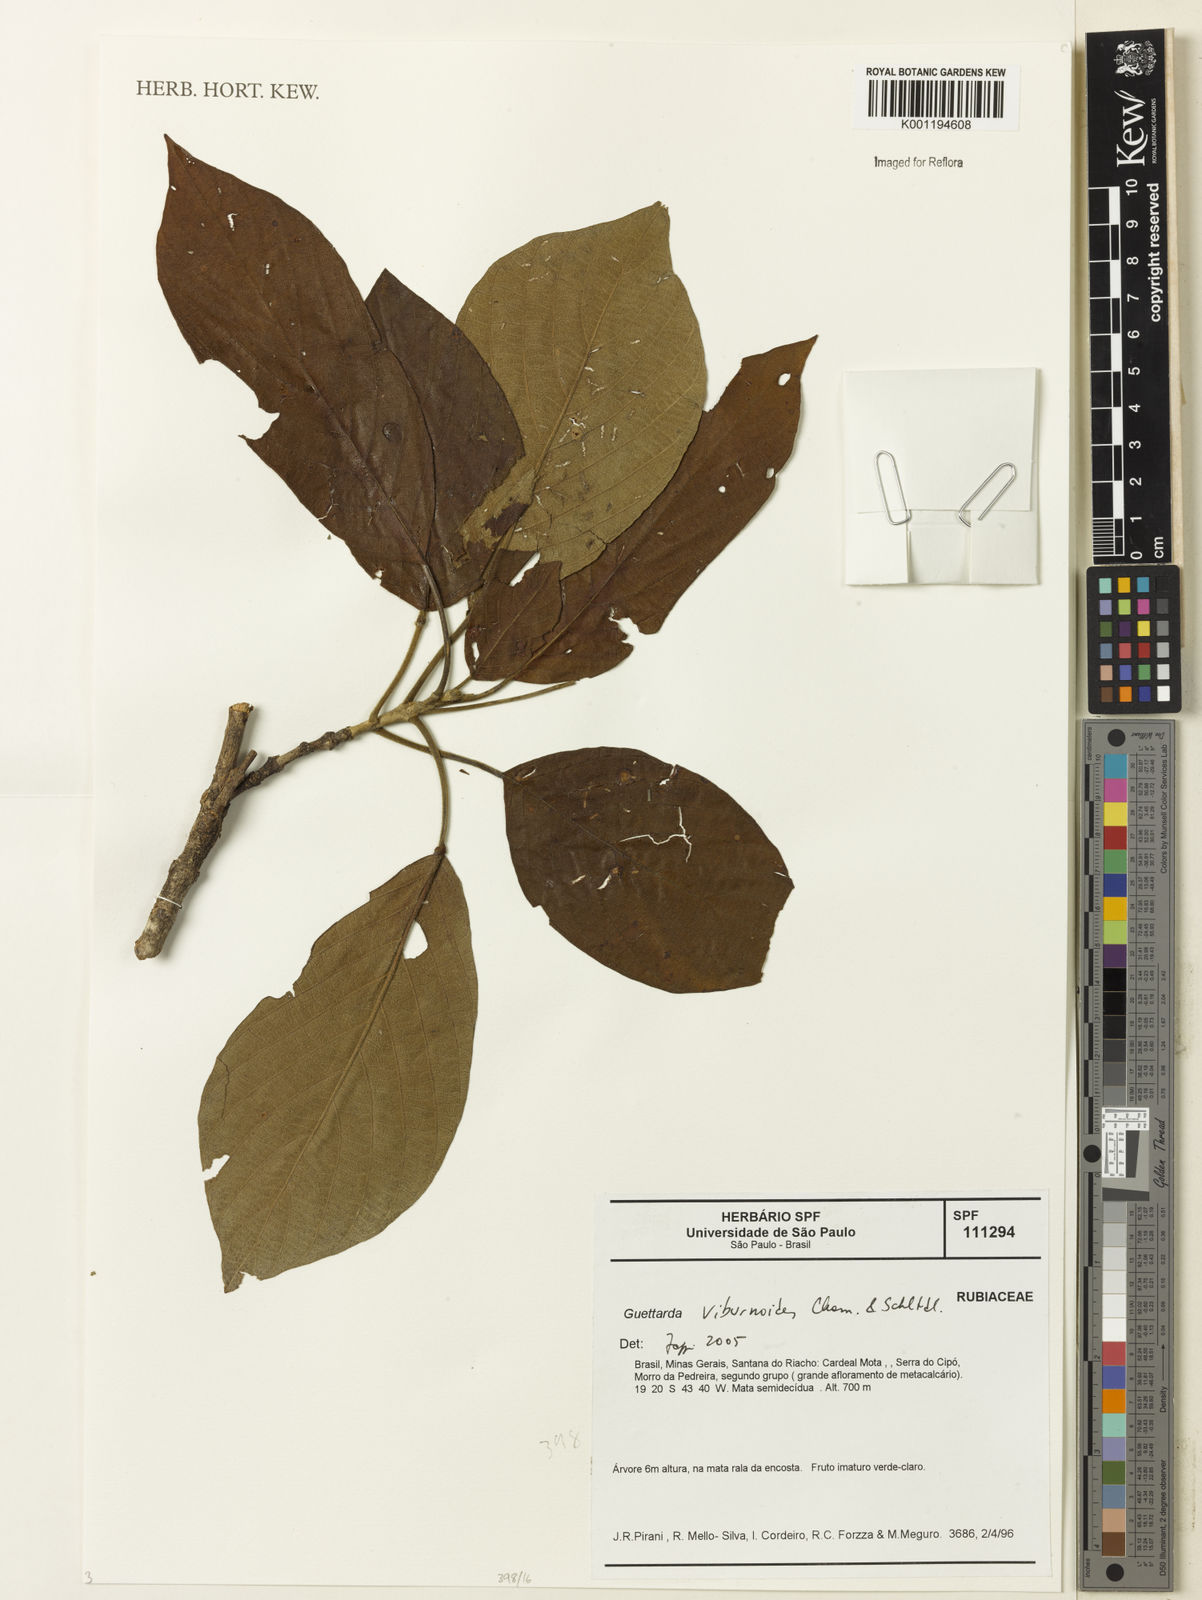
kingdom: Plantae
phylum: Tracheophyta
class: Magnoliopsida
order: Gentianales
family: Rubiaceae
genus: Guettarda
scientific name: Guettarda viburnoides
